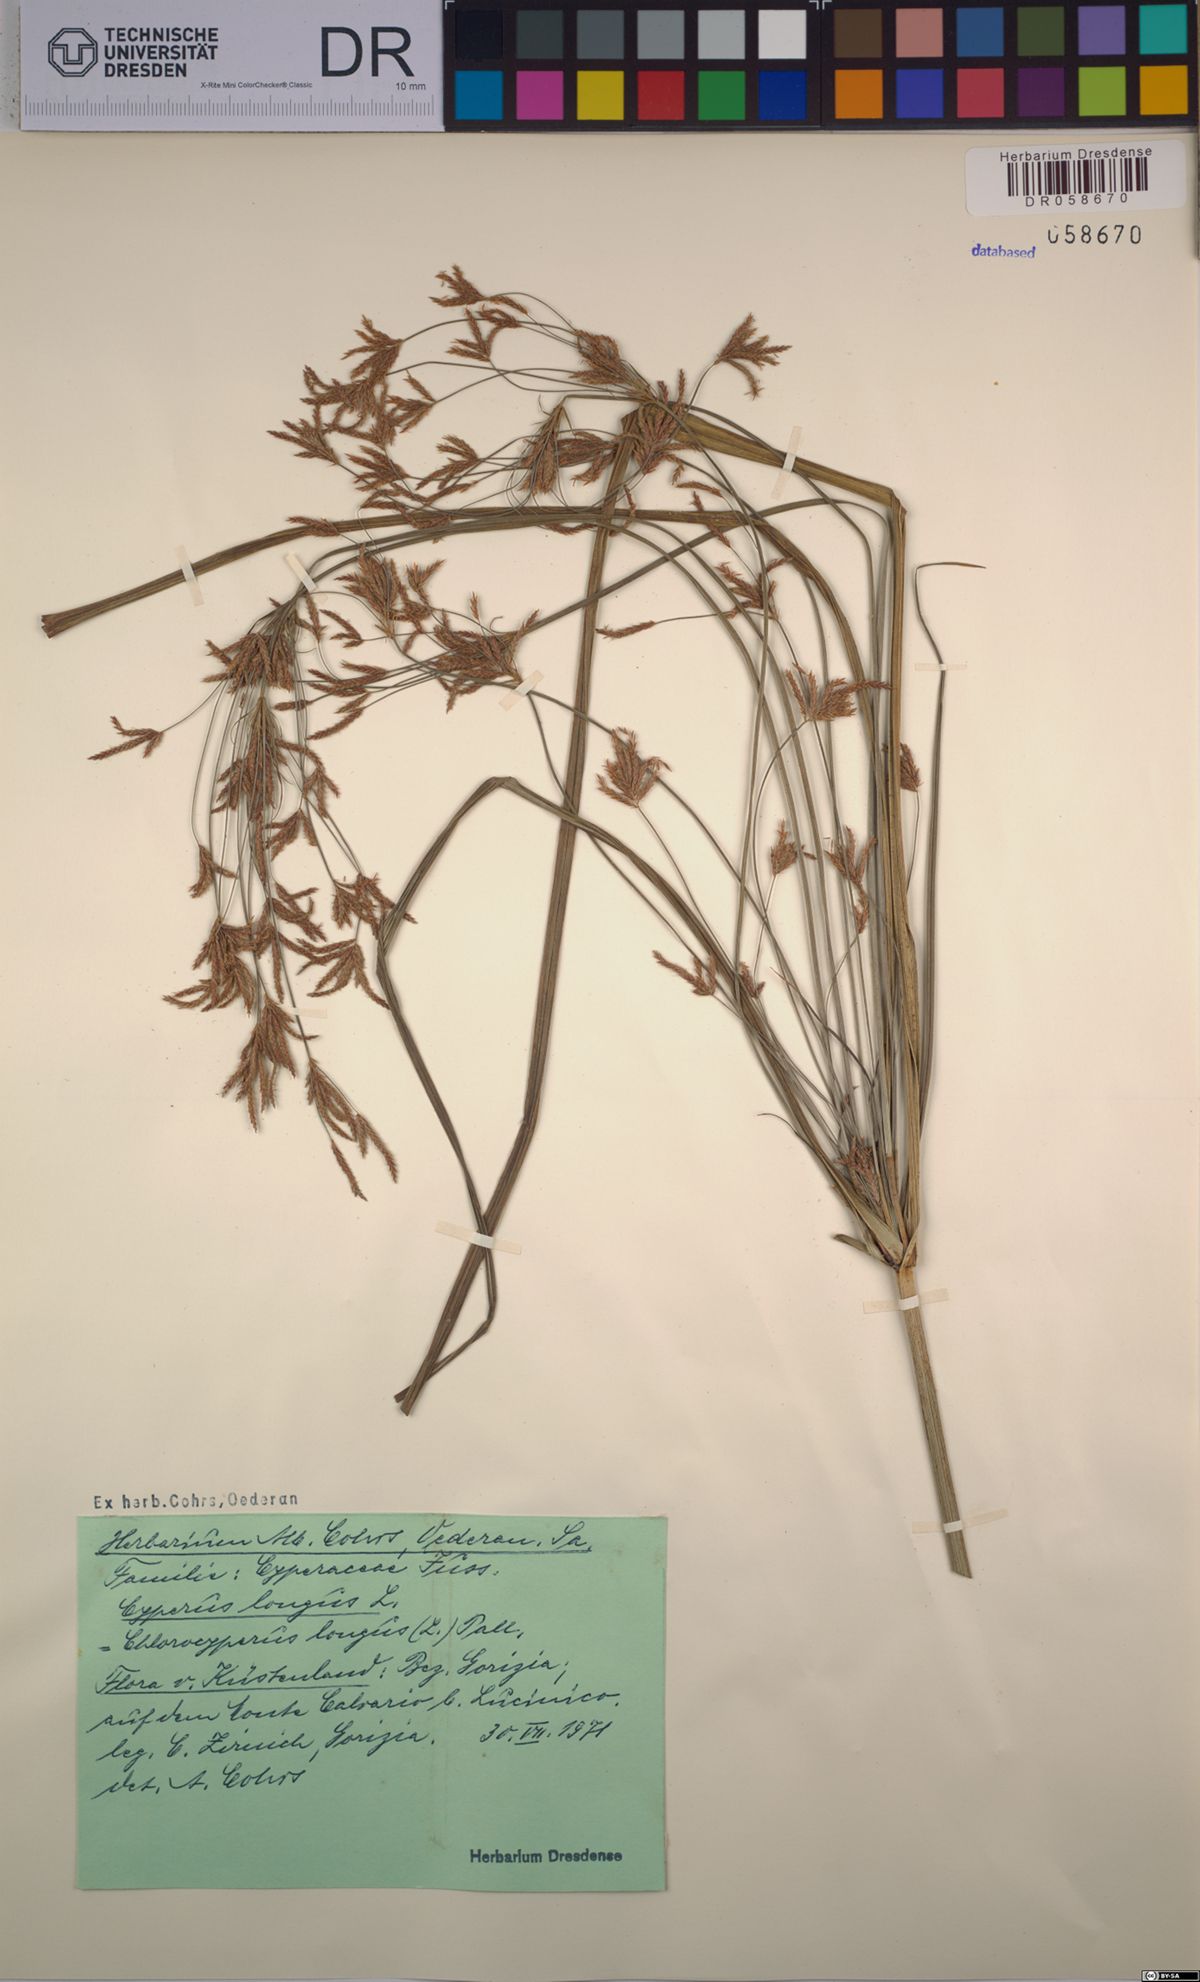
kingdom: Plantae
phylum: Tracheophyta
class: Liliopsida
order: Poales
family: Cyperaceae
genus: Cyperus
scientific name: Cyperus longus
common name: Galingale
